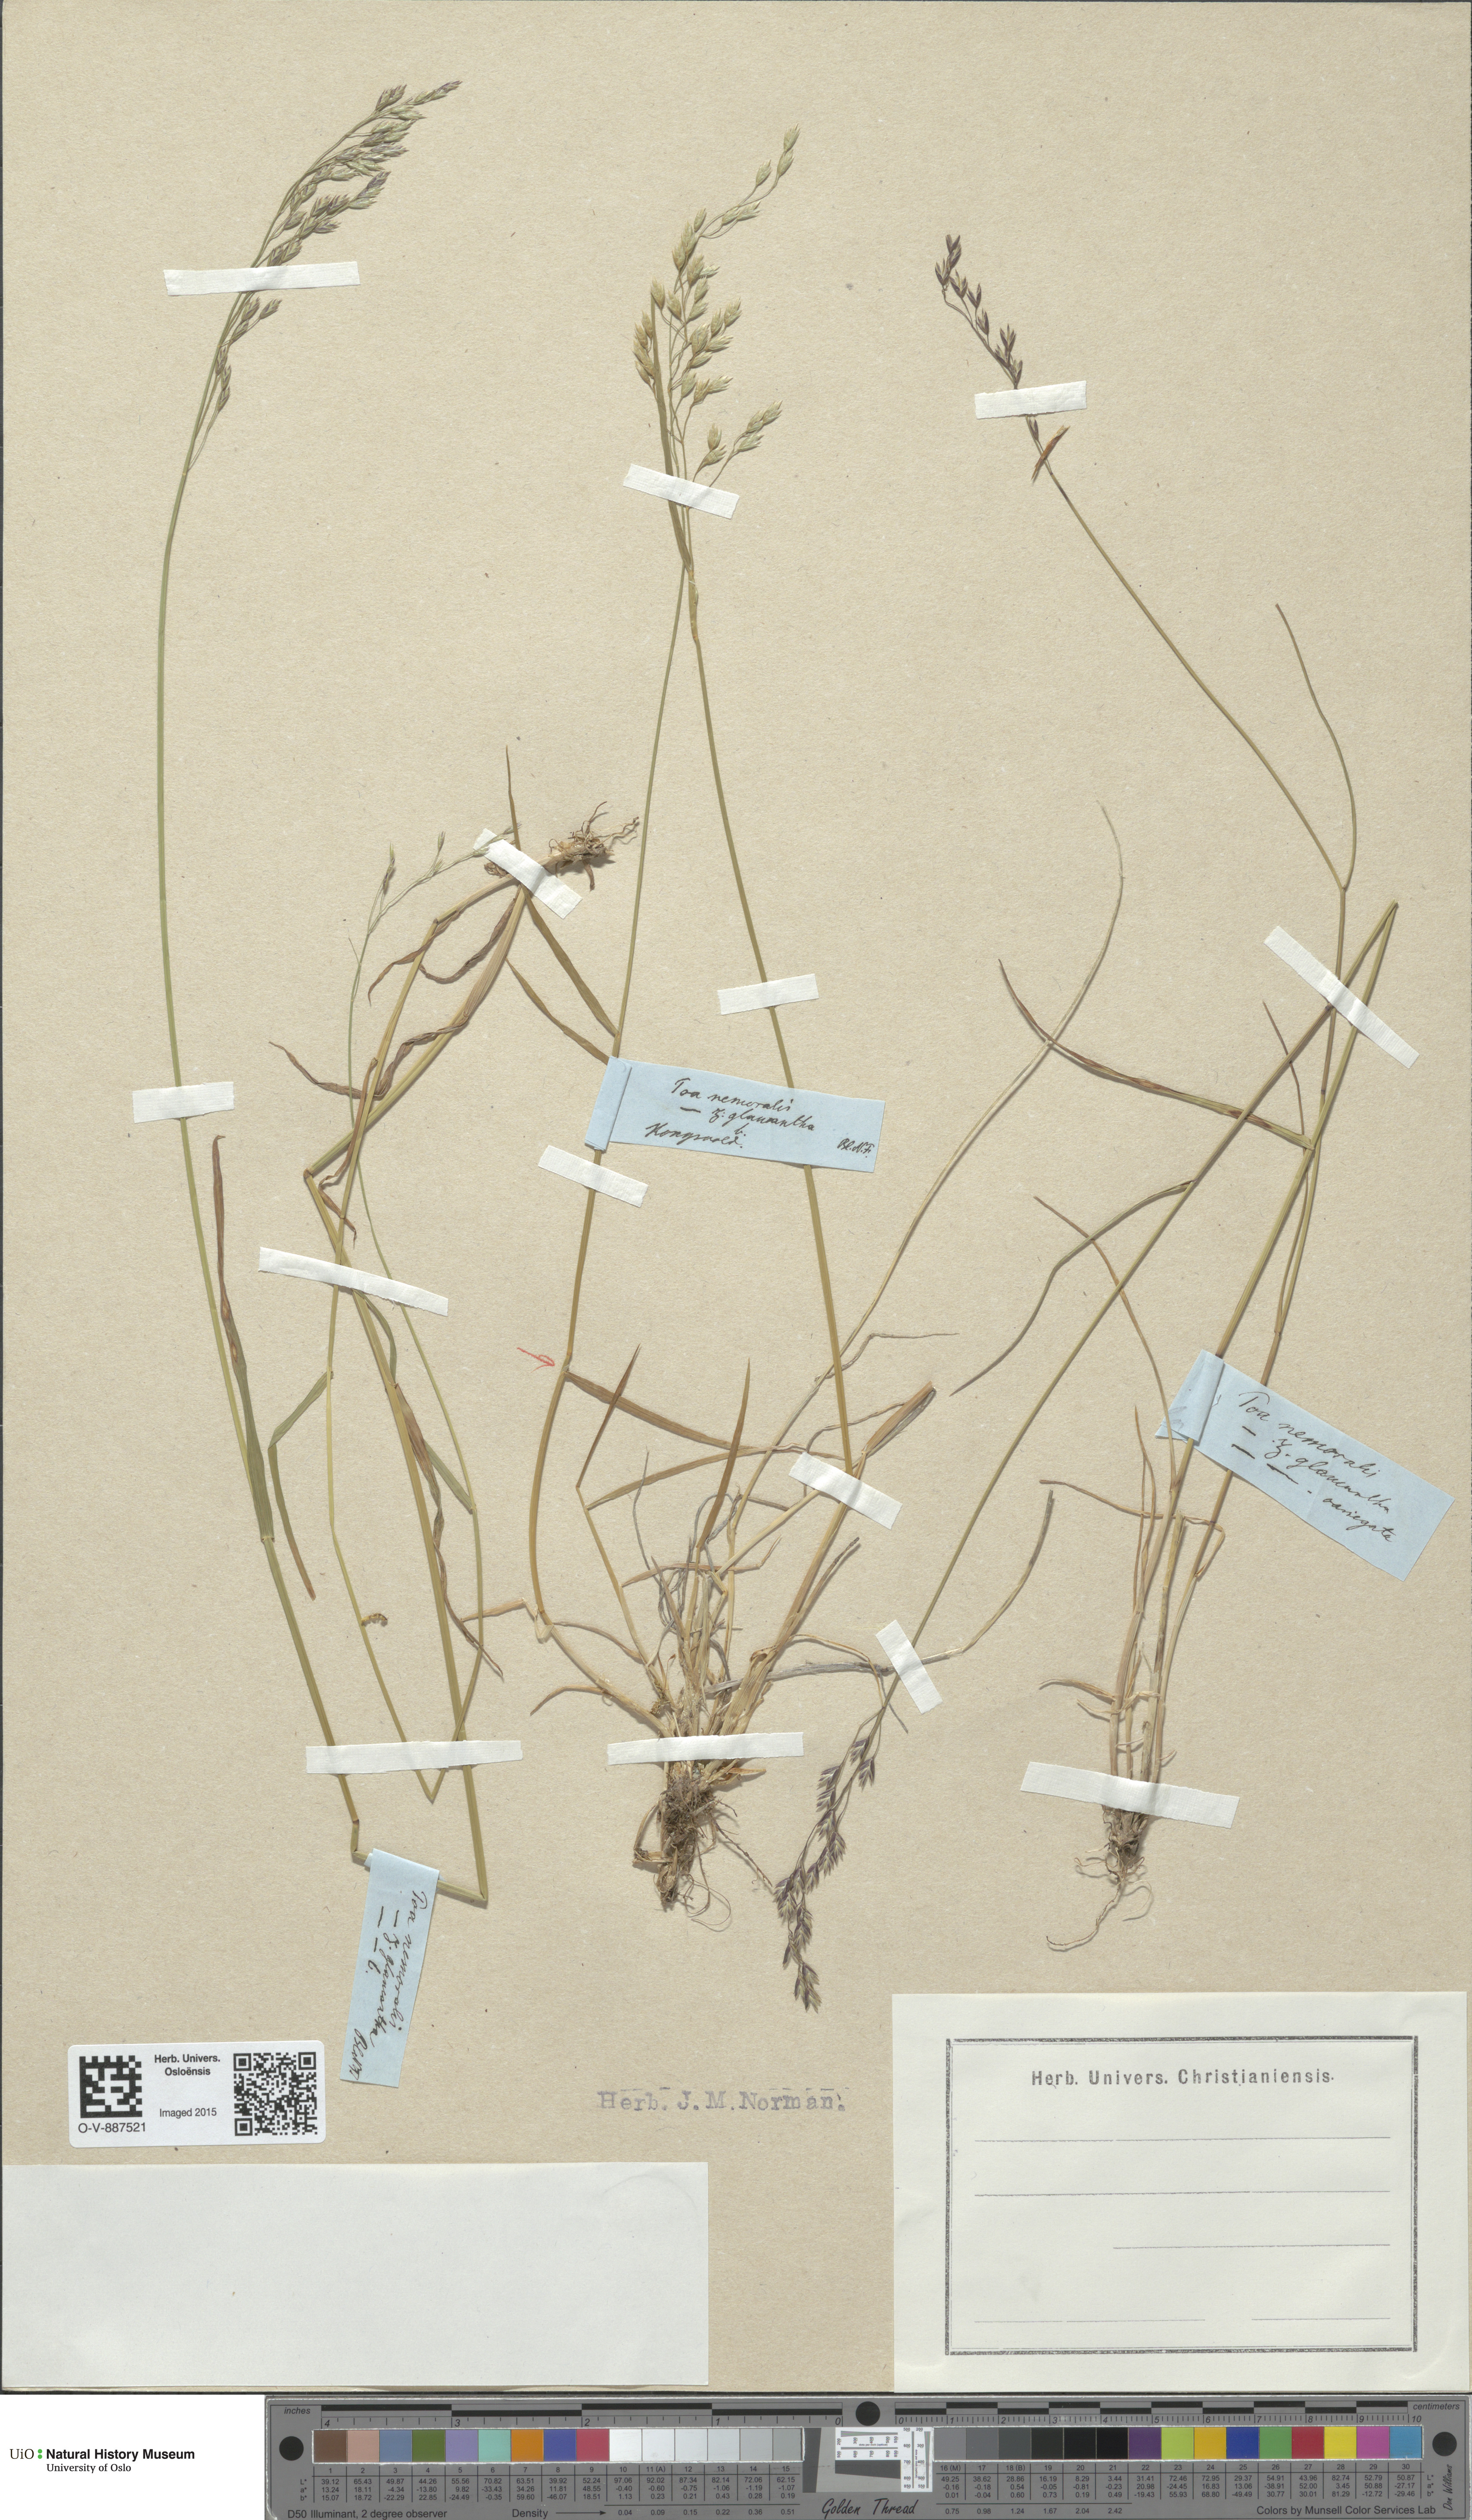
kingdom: Plantae
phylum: Tracheophyta
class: Liliopsida
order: Poales
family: Poaceae
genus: Poa
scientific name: Poa nemoralis
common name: Wood bluegrass
